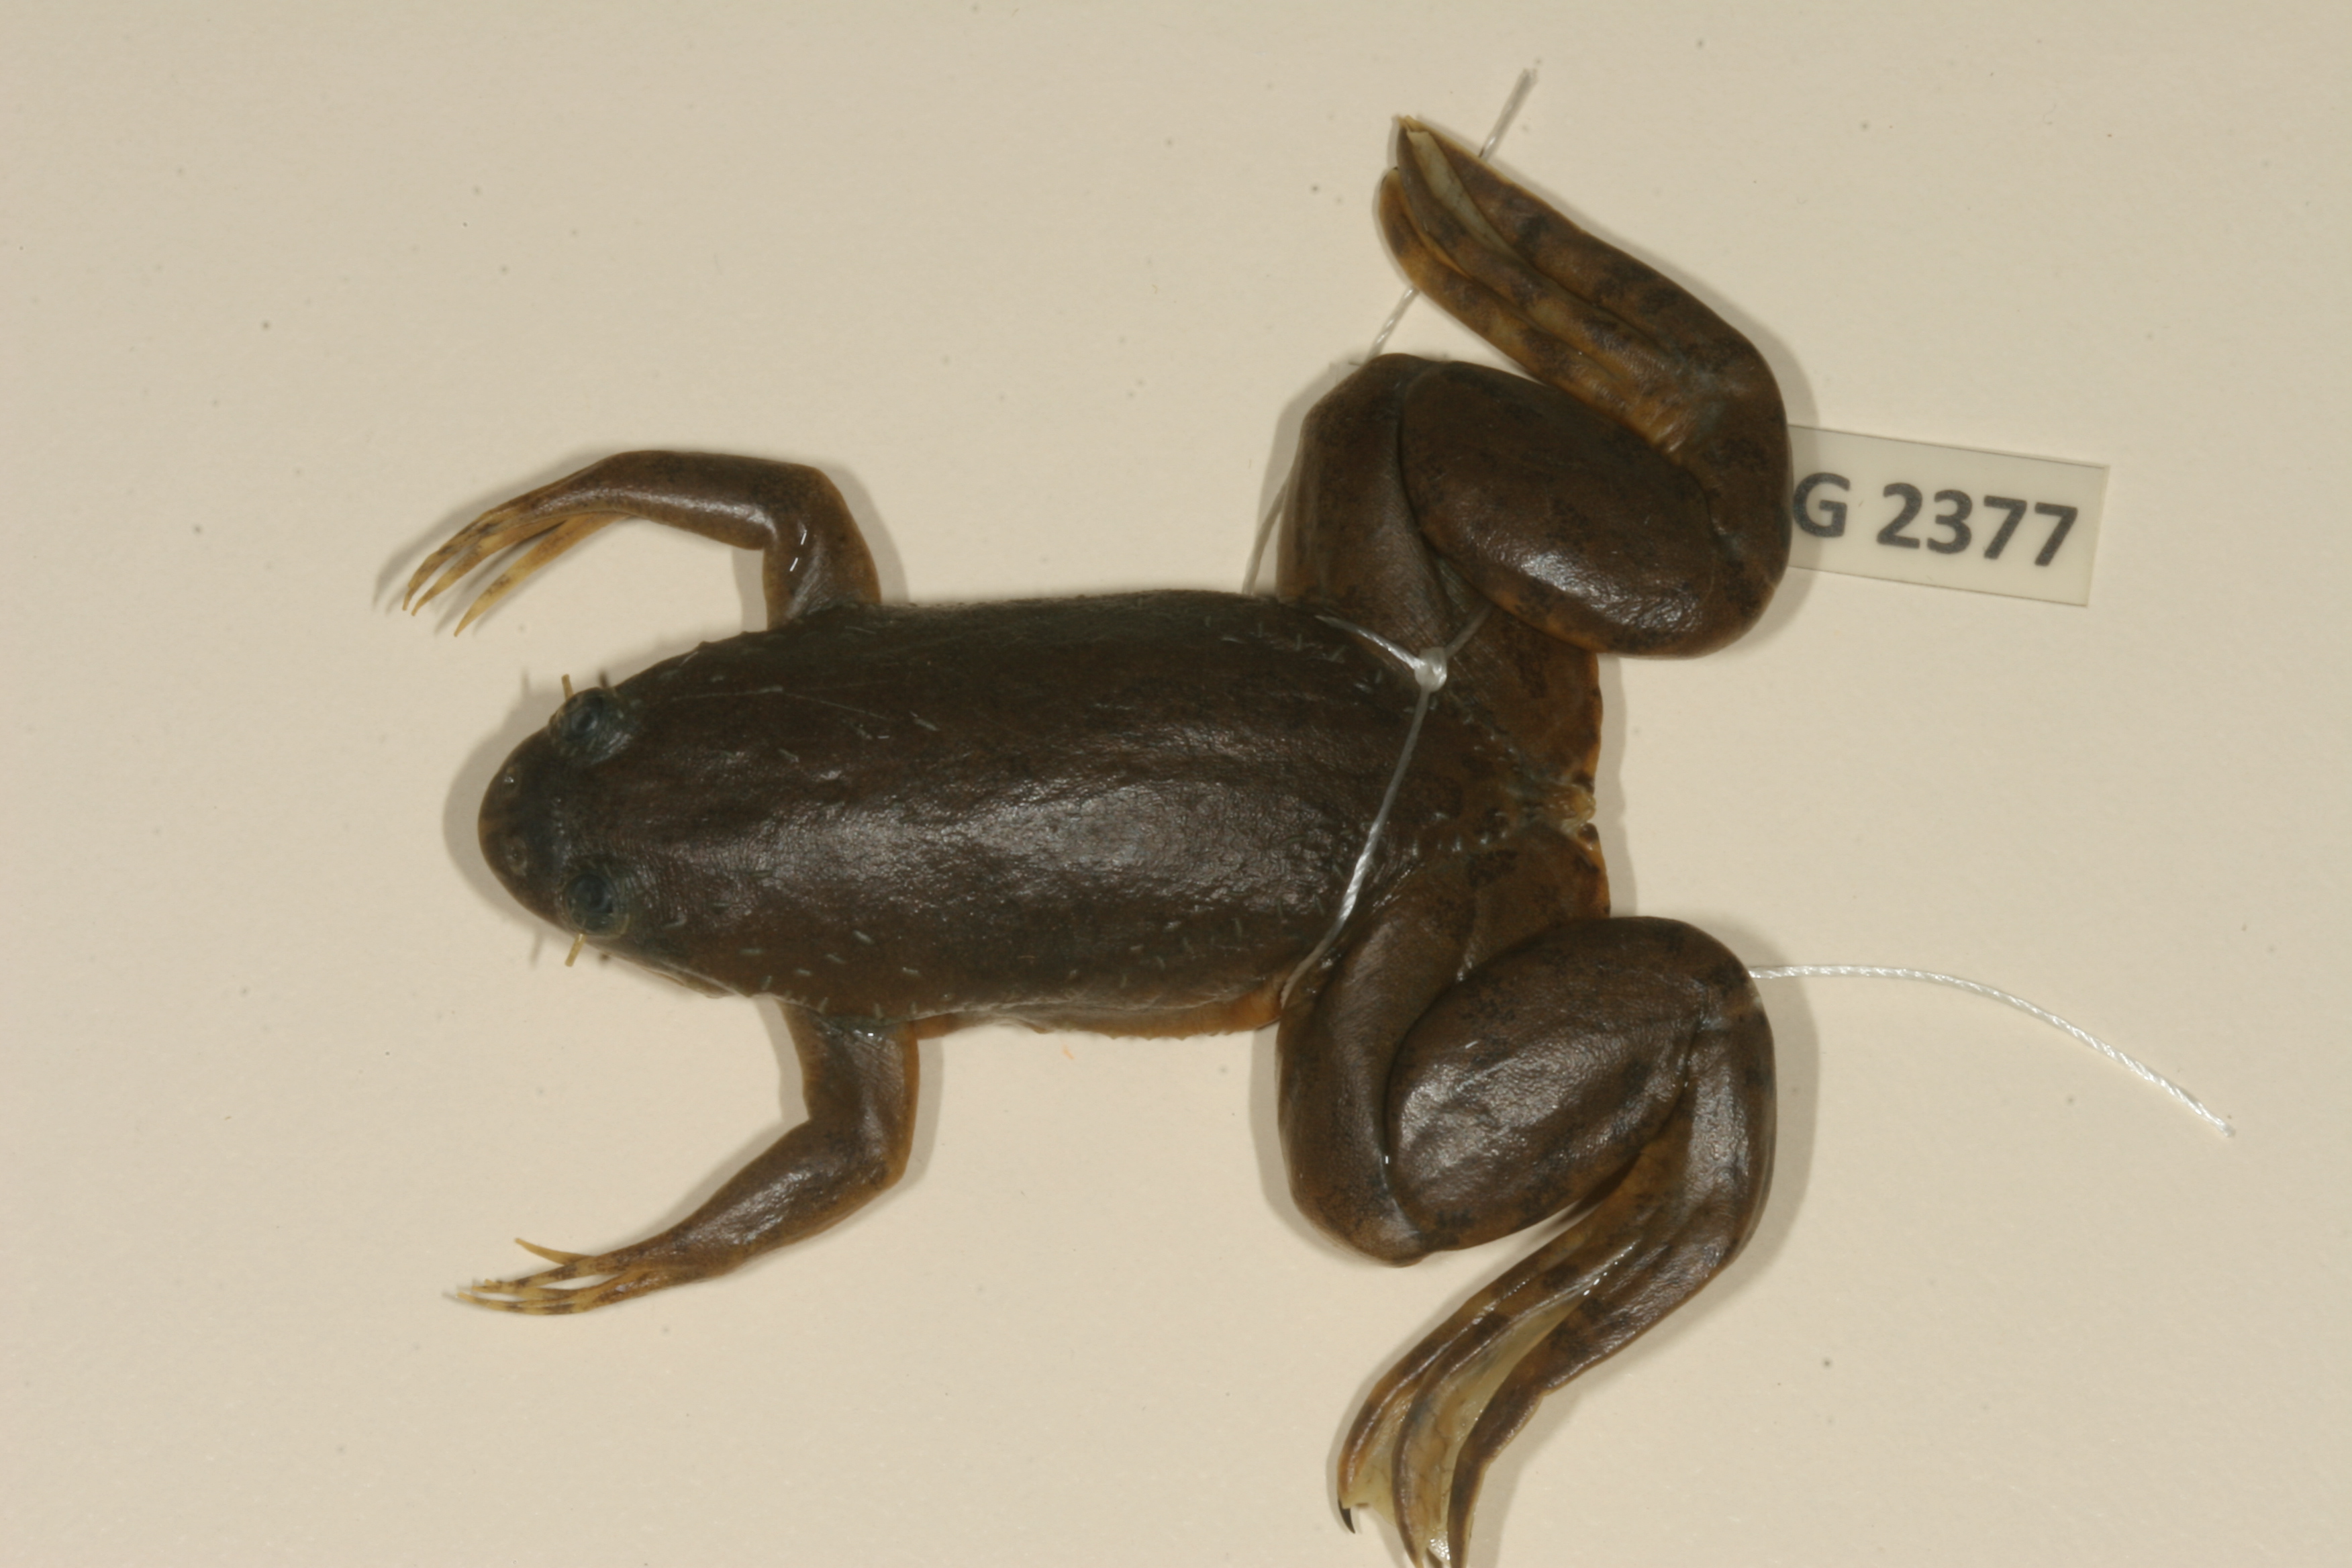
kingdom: Animalia
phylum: Chordata
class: Amphibia
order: Anura
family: Pipidae
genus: Xenopus
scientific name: Xenopus muelleri
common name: Muller's clawed frog
